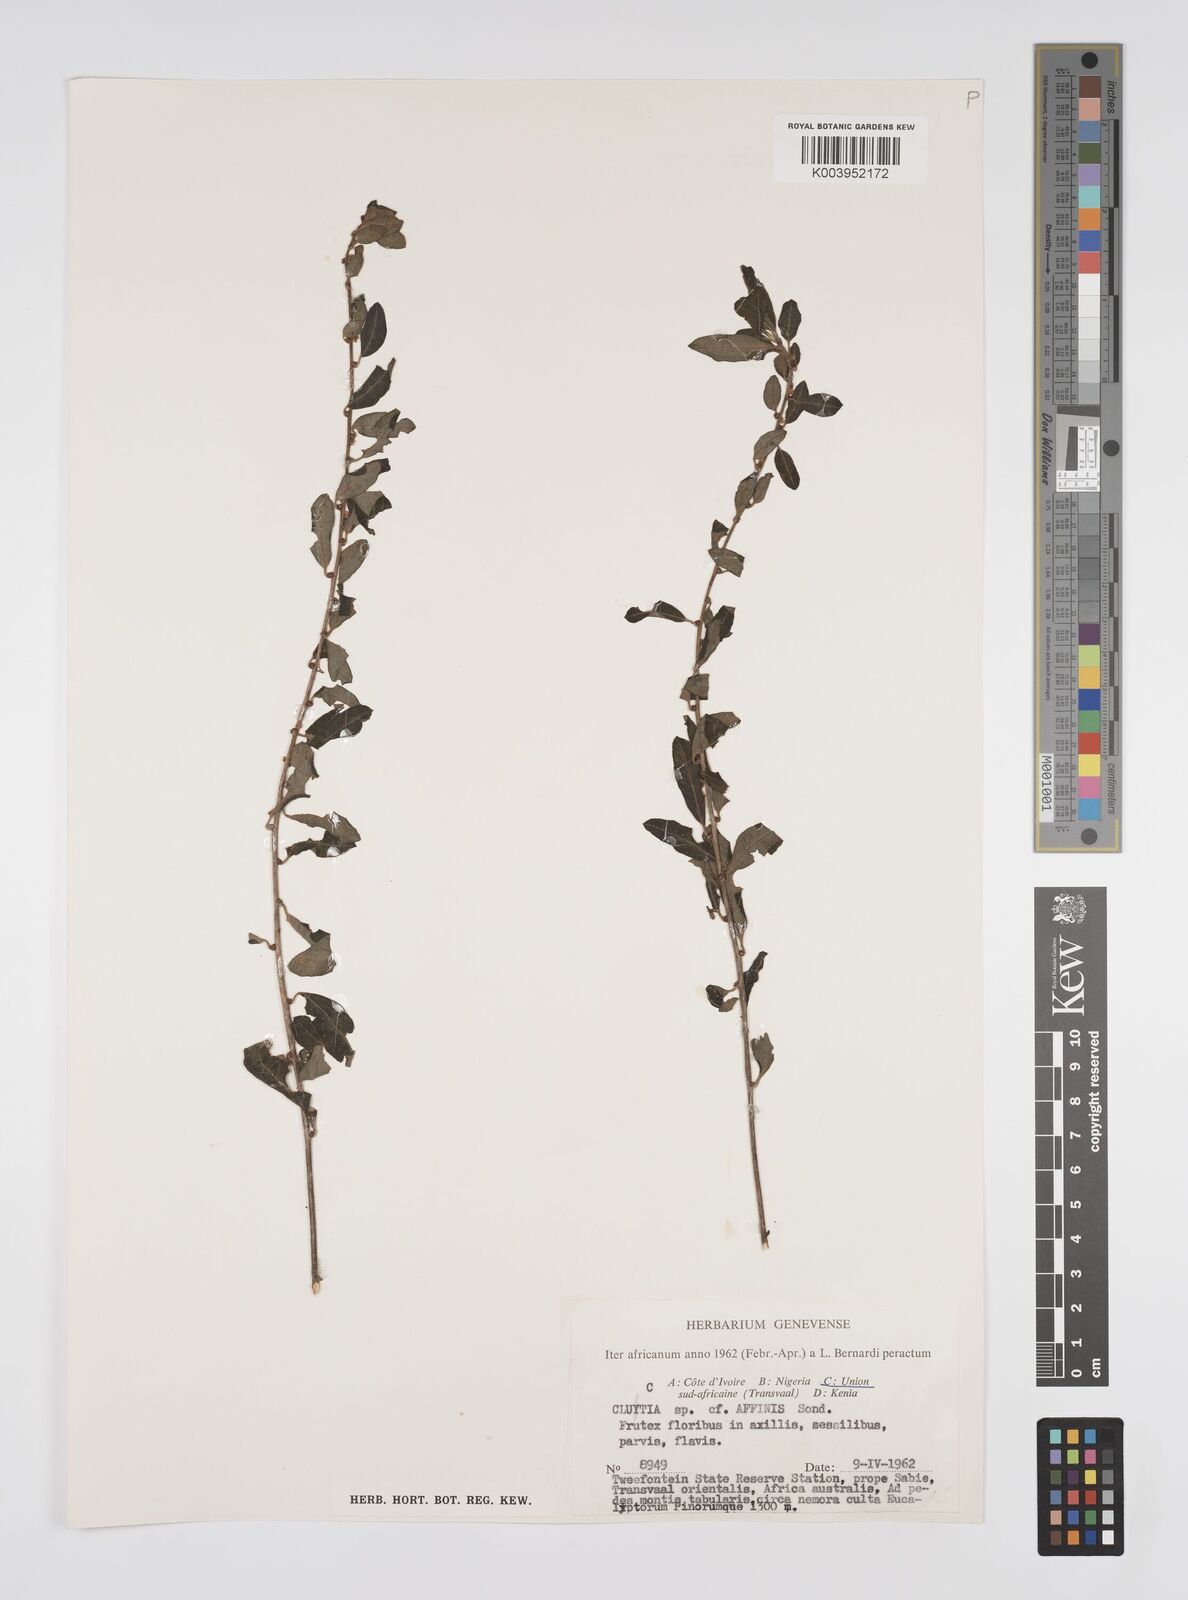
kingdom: Plantae
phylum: Tracheophyta
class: Magnoliopsida
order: Malpighiales
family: Peraceae
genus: Clutia
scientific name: Clutia affinis
